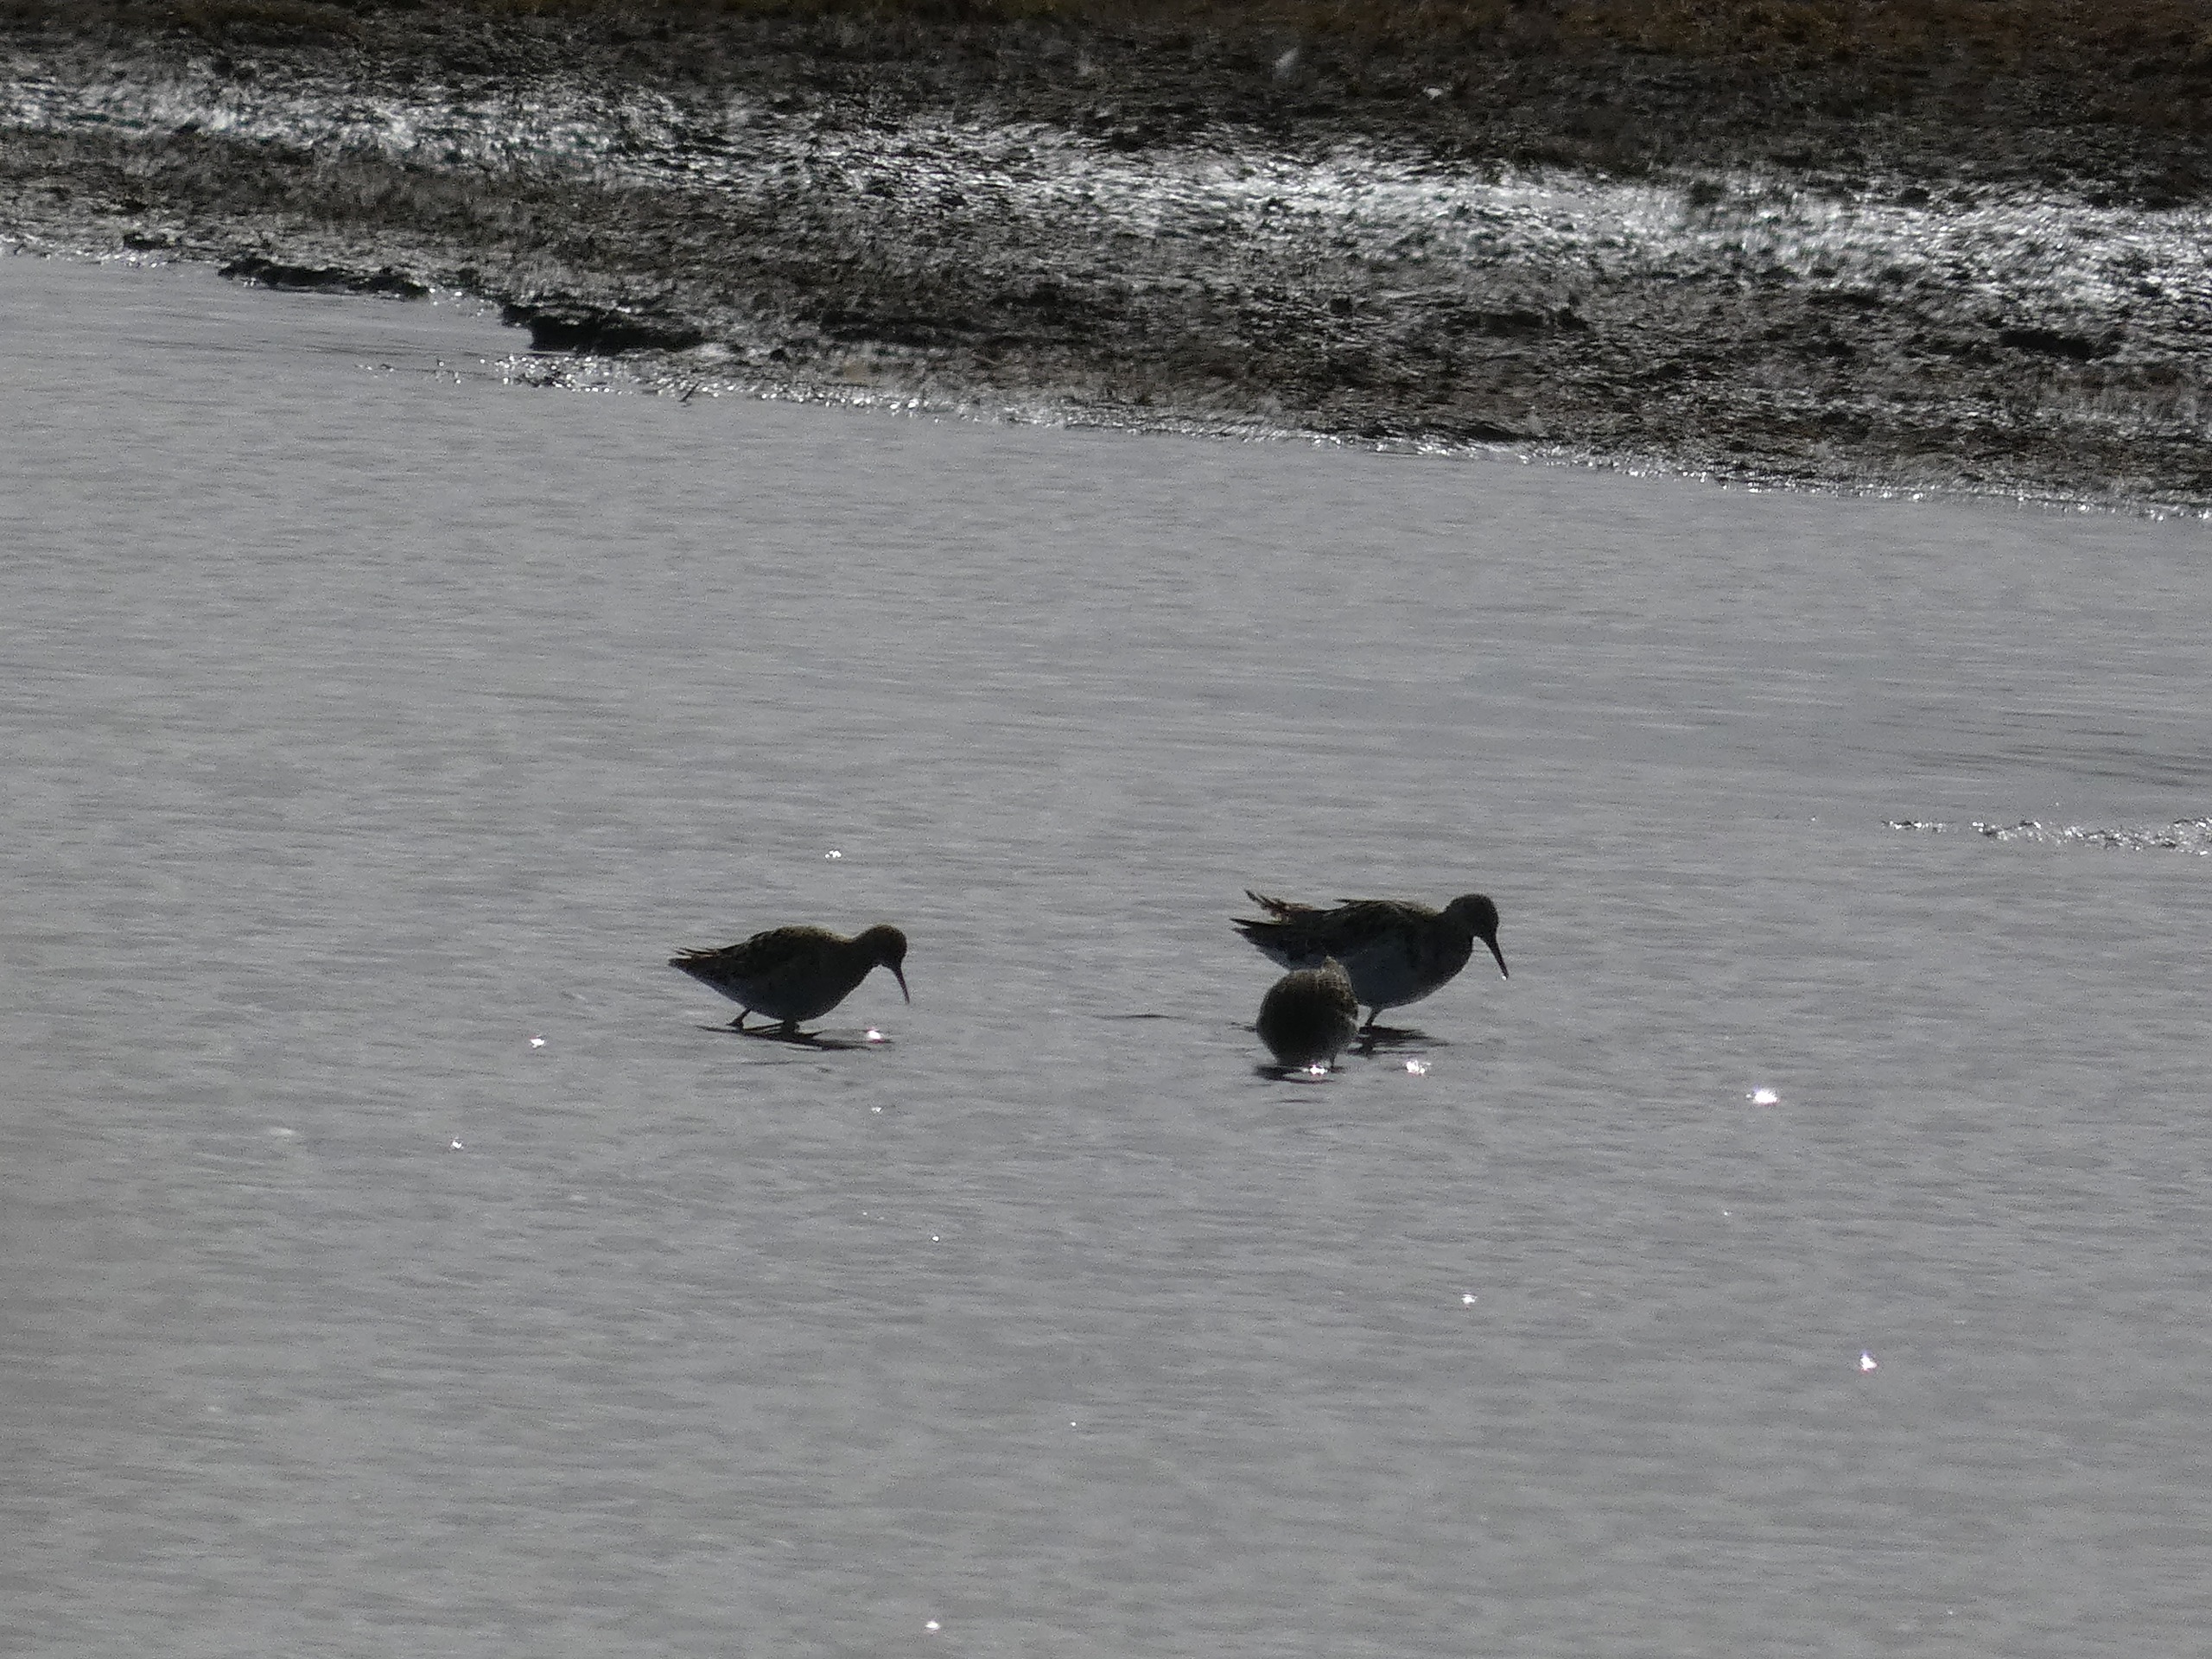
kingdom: Animalia
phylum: Chordata
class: Aves
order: Charadriiformes
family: Scolopacidae
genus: Calidris
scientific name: Calidris pugnax
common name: Brushane
